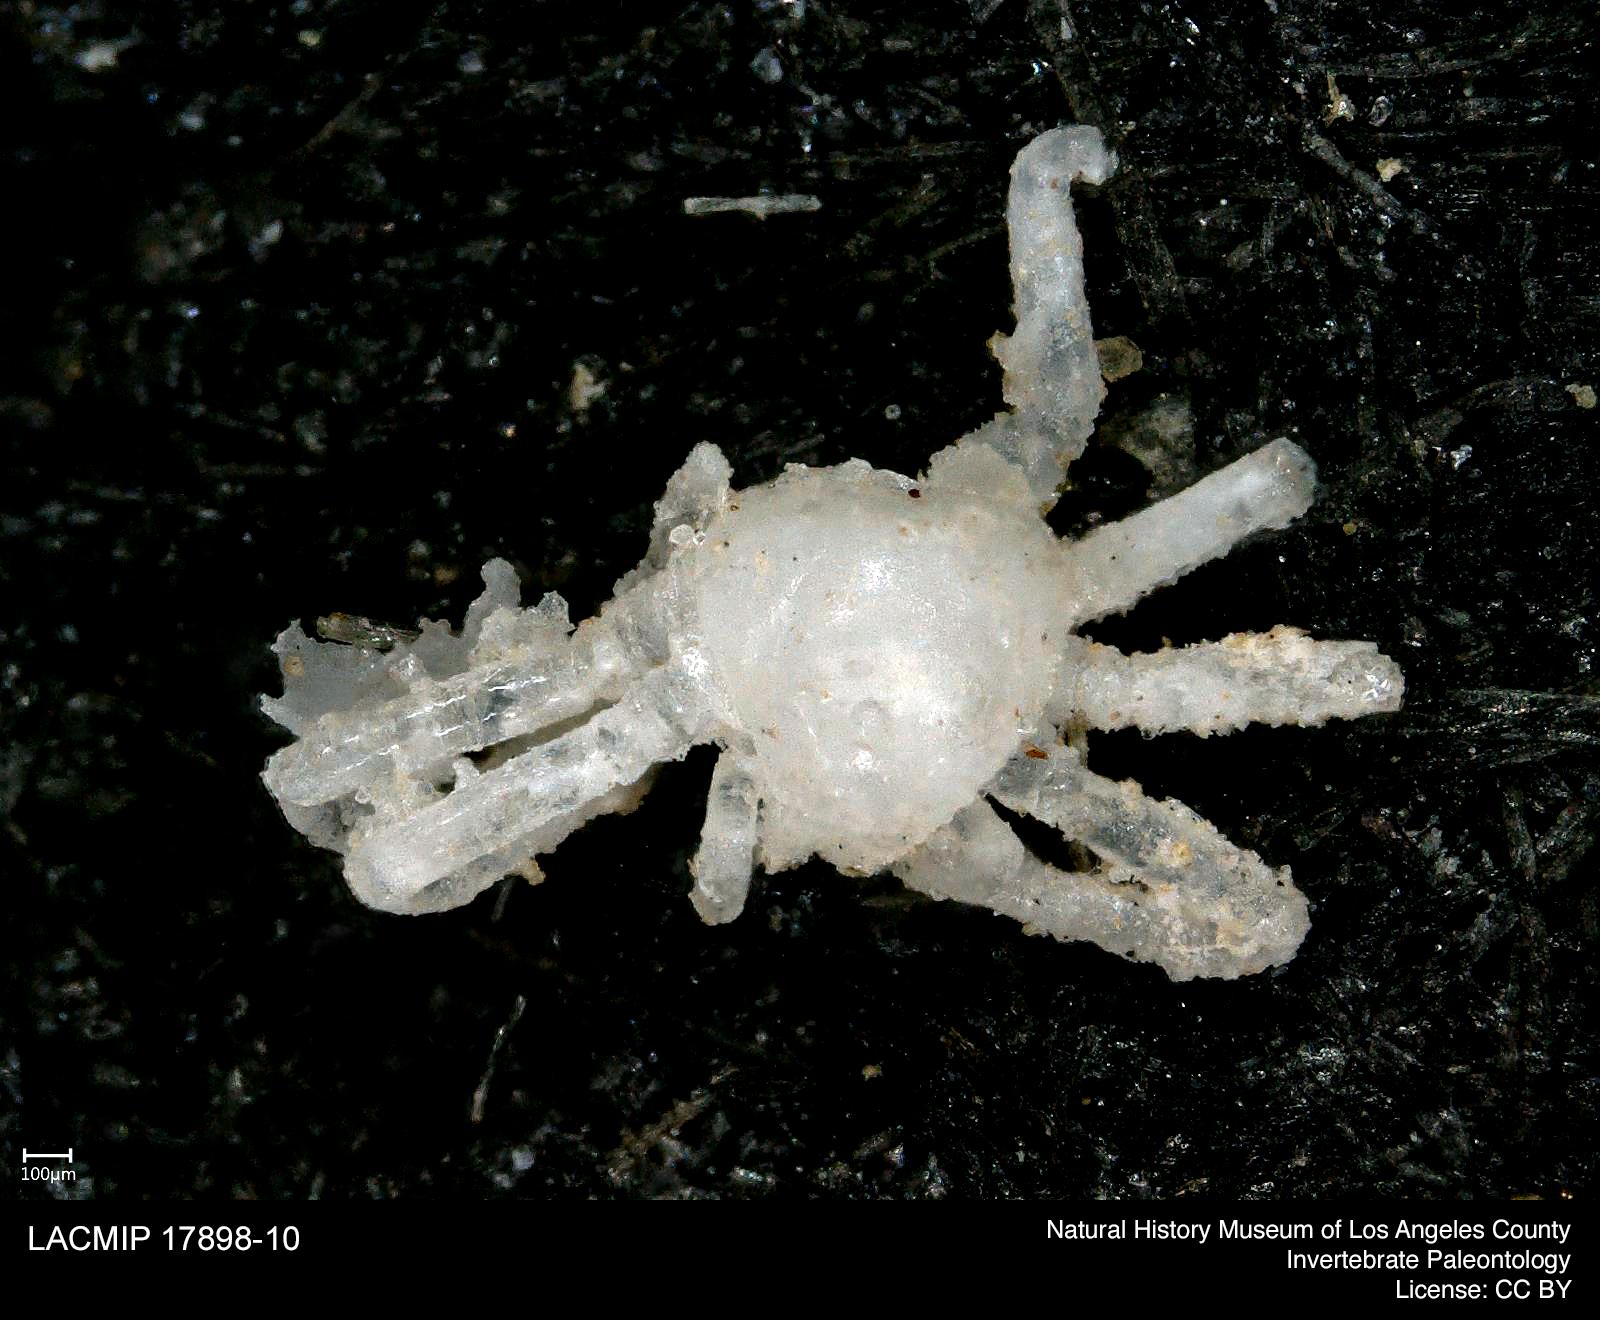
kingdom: Animalia
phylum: Arthropoda
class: Arachnida
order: Araneae
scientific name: Araneae
